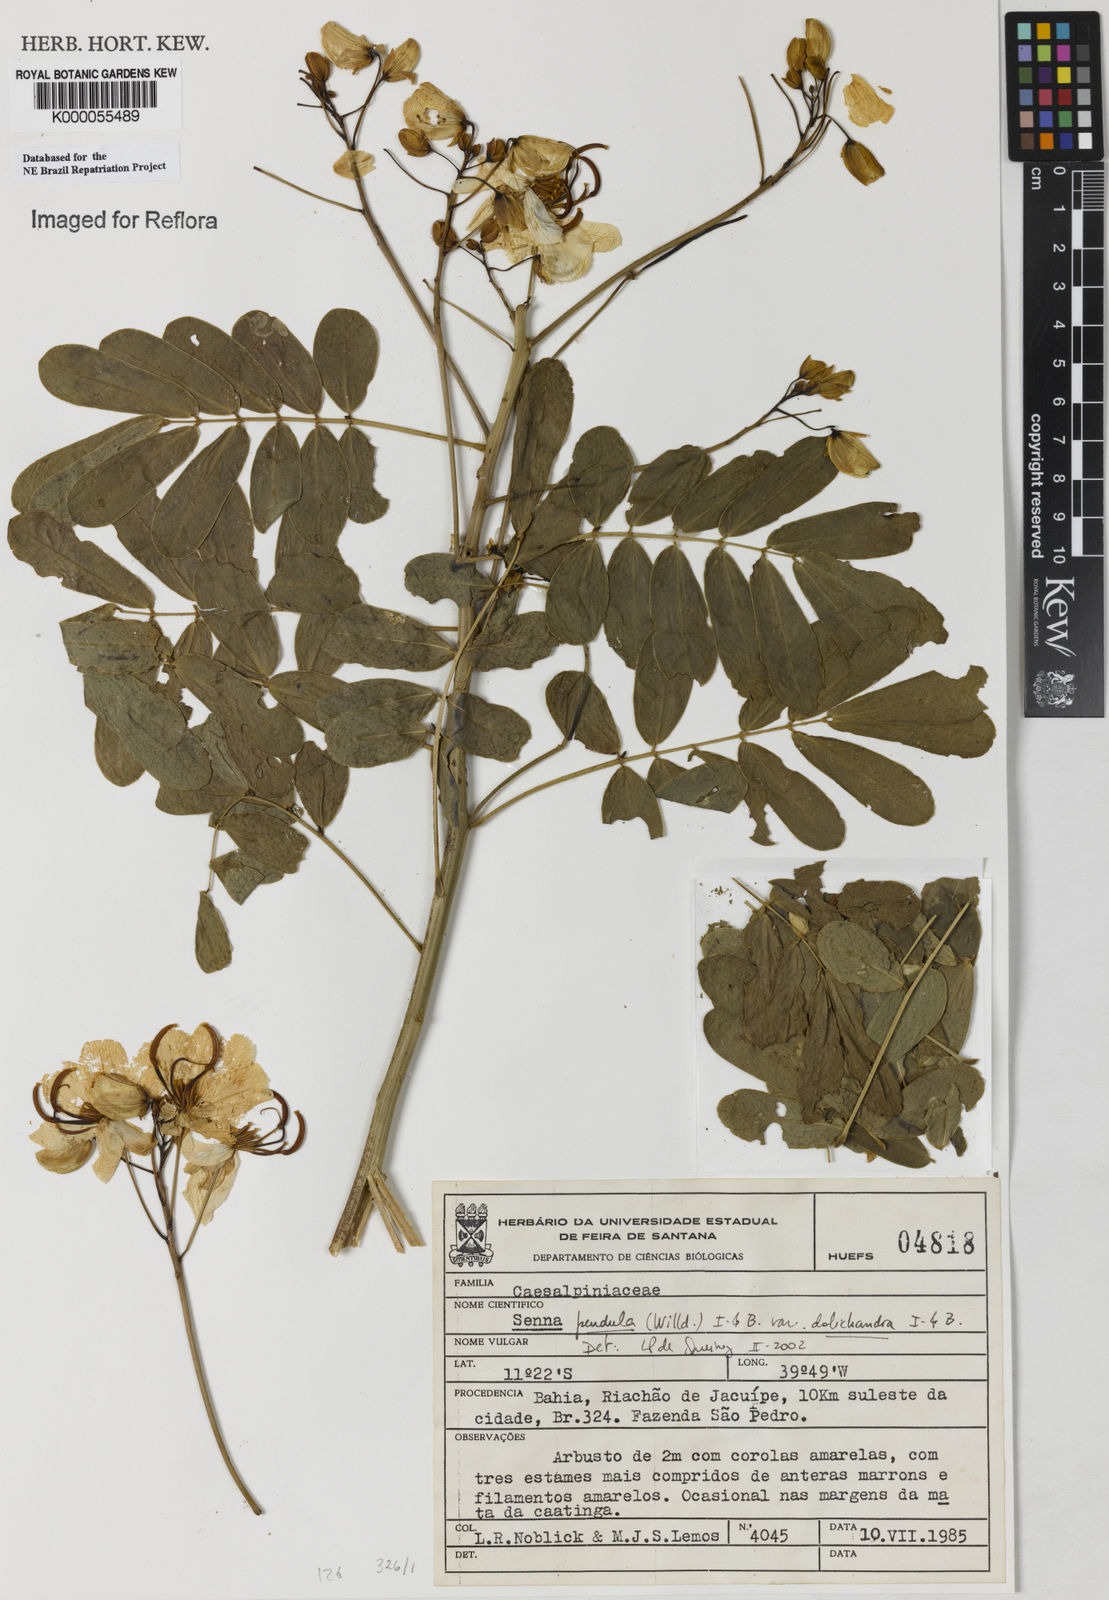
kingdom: Plantae
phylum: Tracheophyta
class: Magnoliopsida
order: Fabales
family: Fabaceae
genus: Senna
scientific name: Senna pendula
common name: Easter cassia
